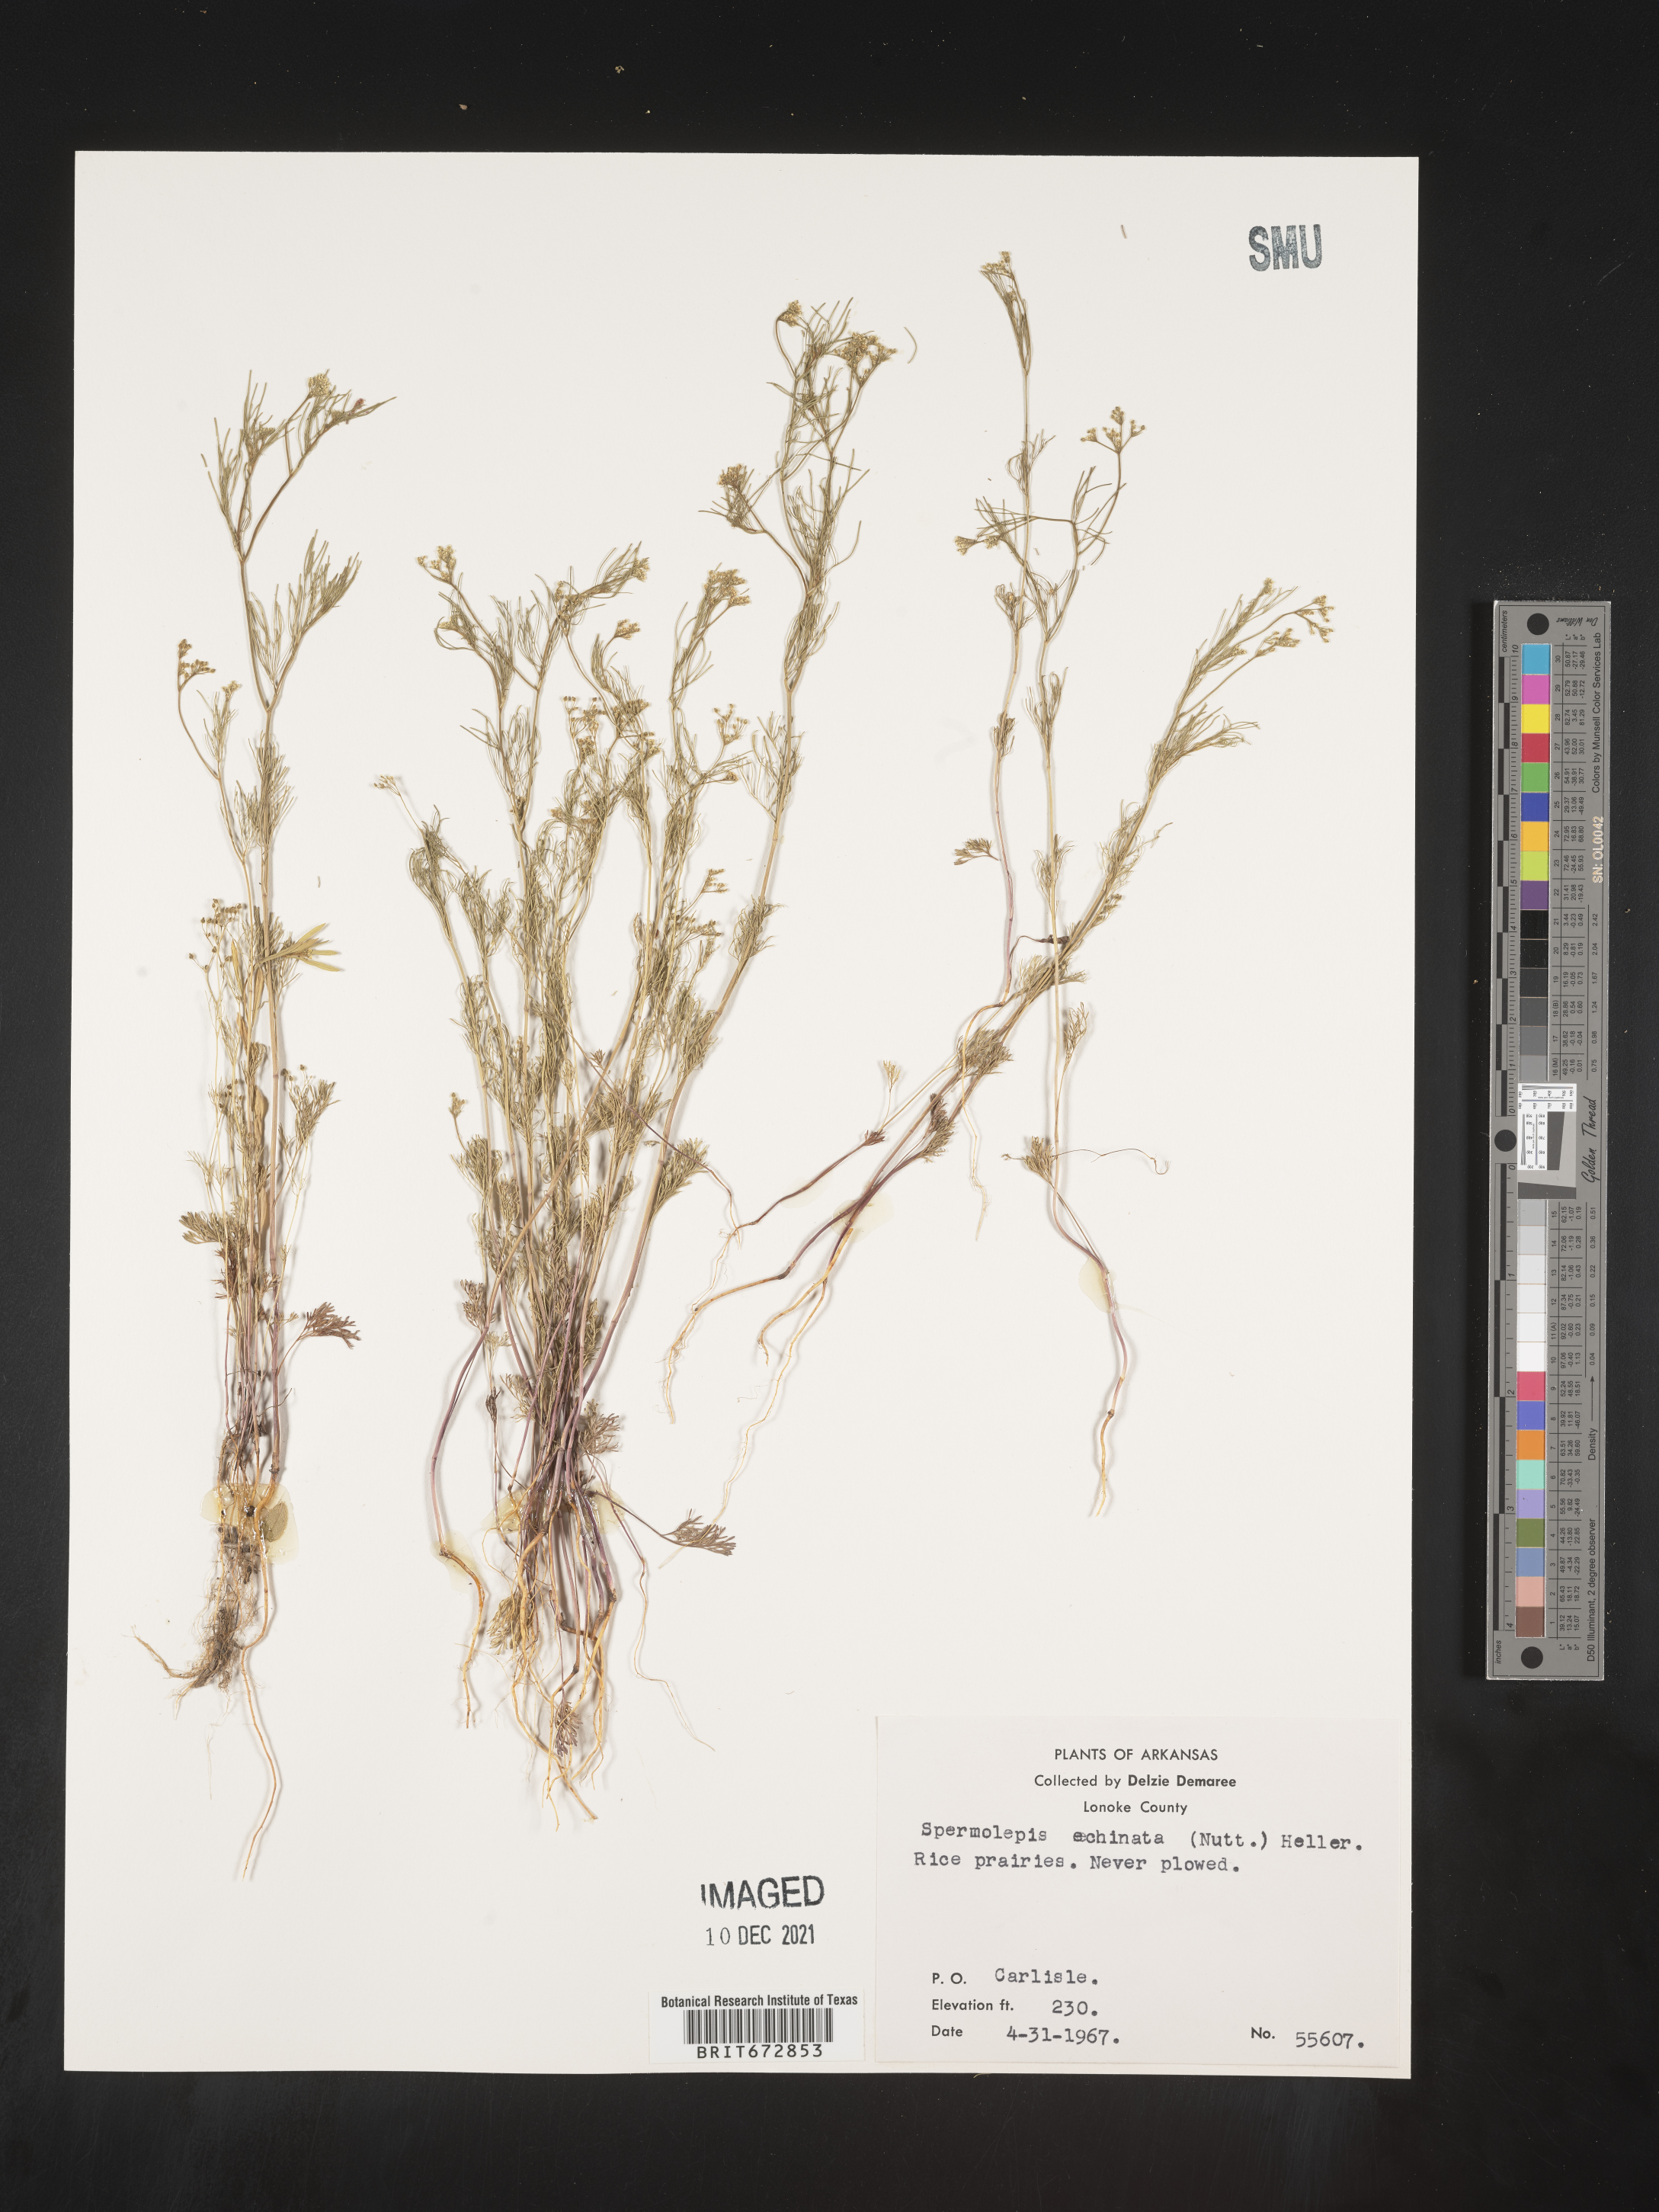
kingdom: Plantae
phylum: Tracheophyta
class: Magnoliopsida
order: Apiales
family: Apiaceae
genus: Spermolepis
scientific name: Spermolepis echinata
